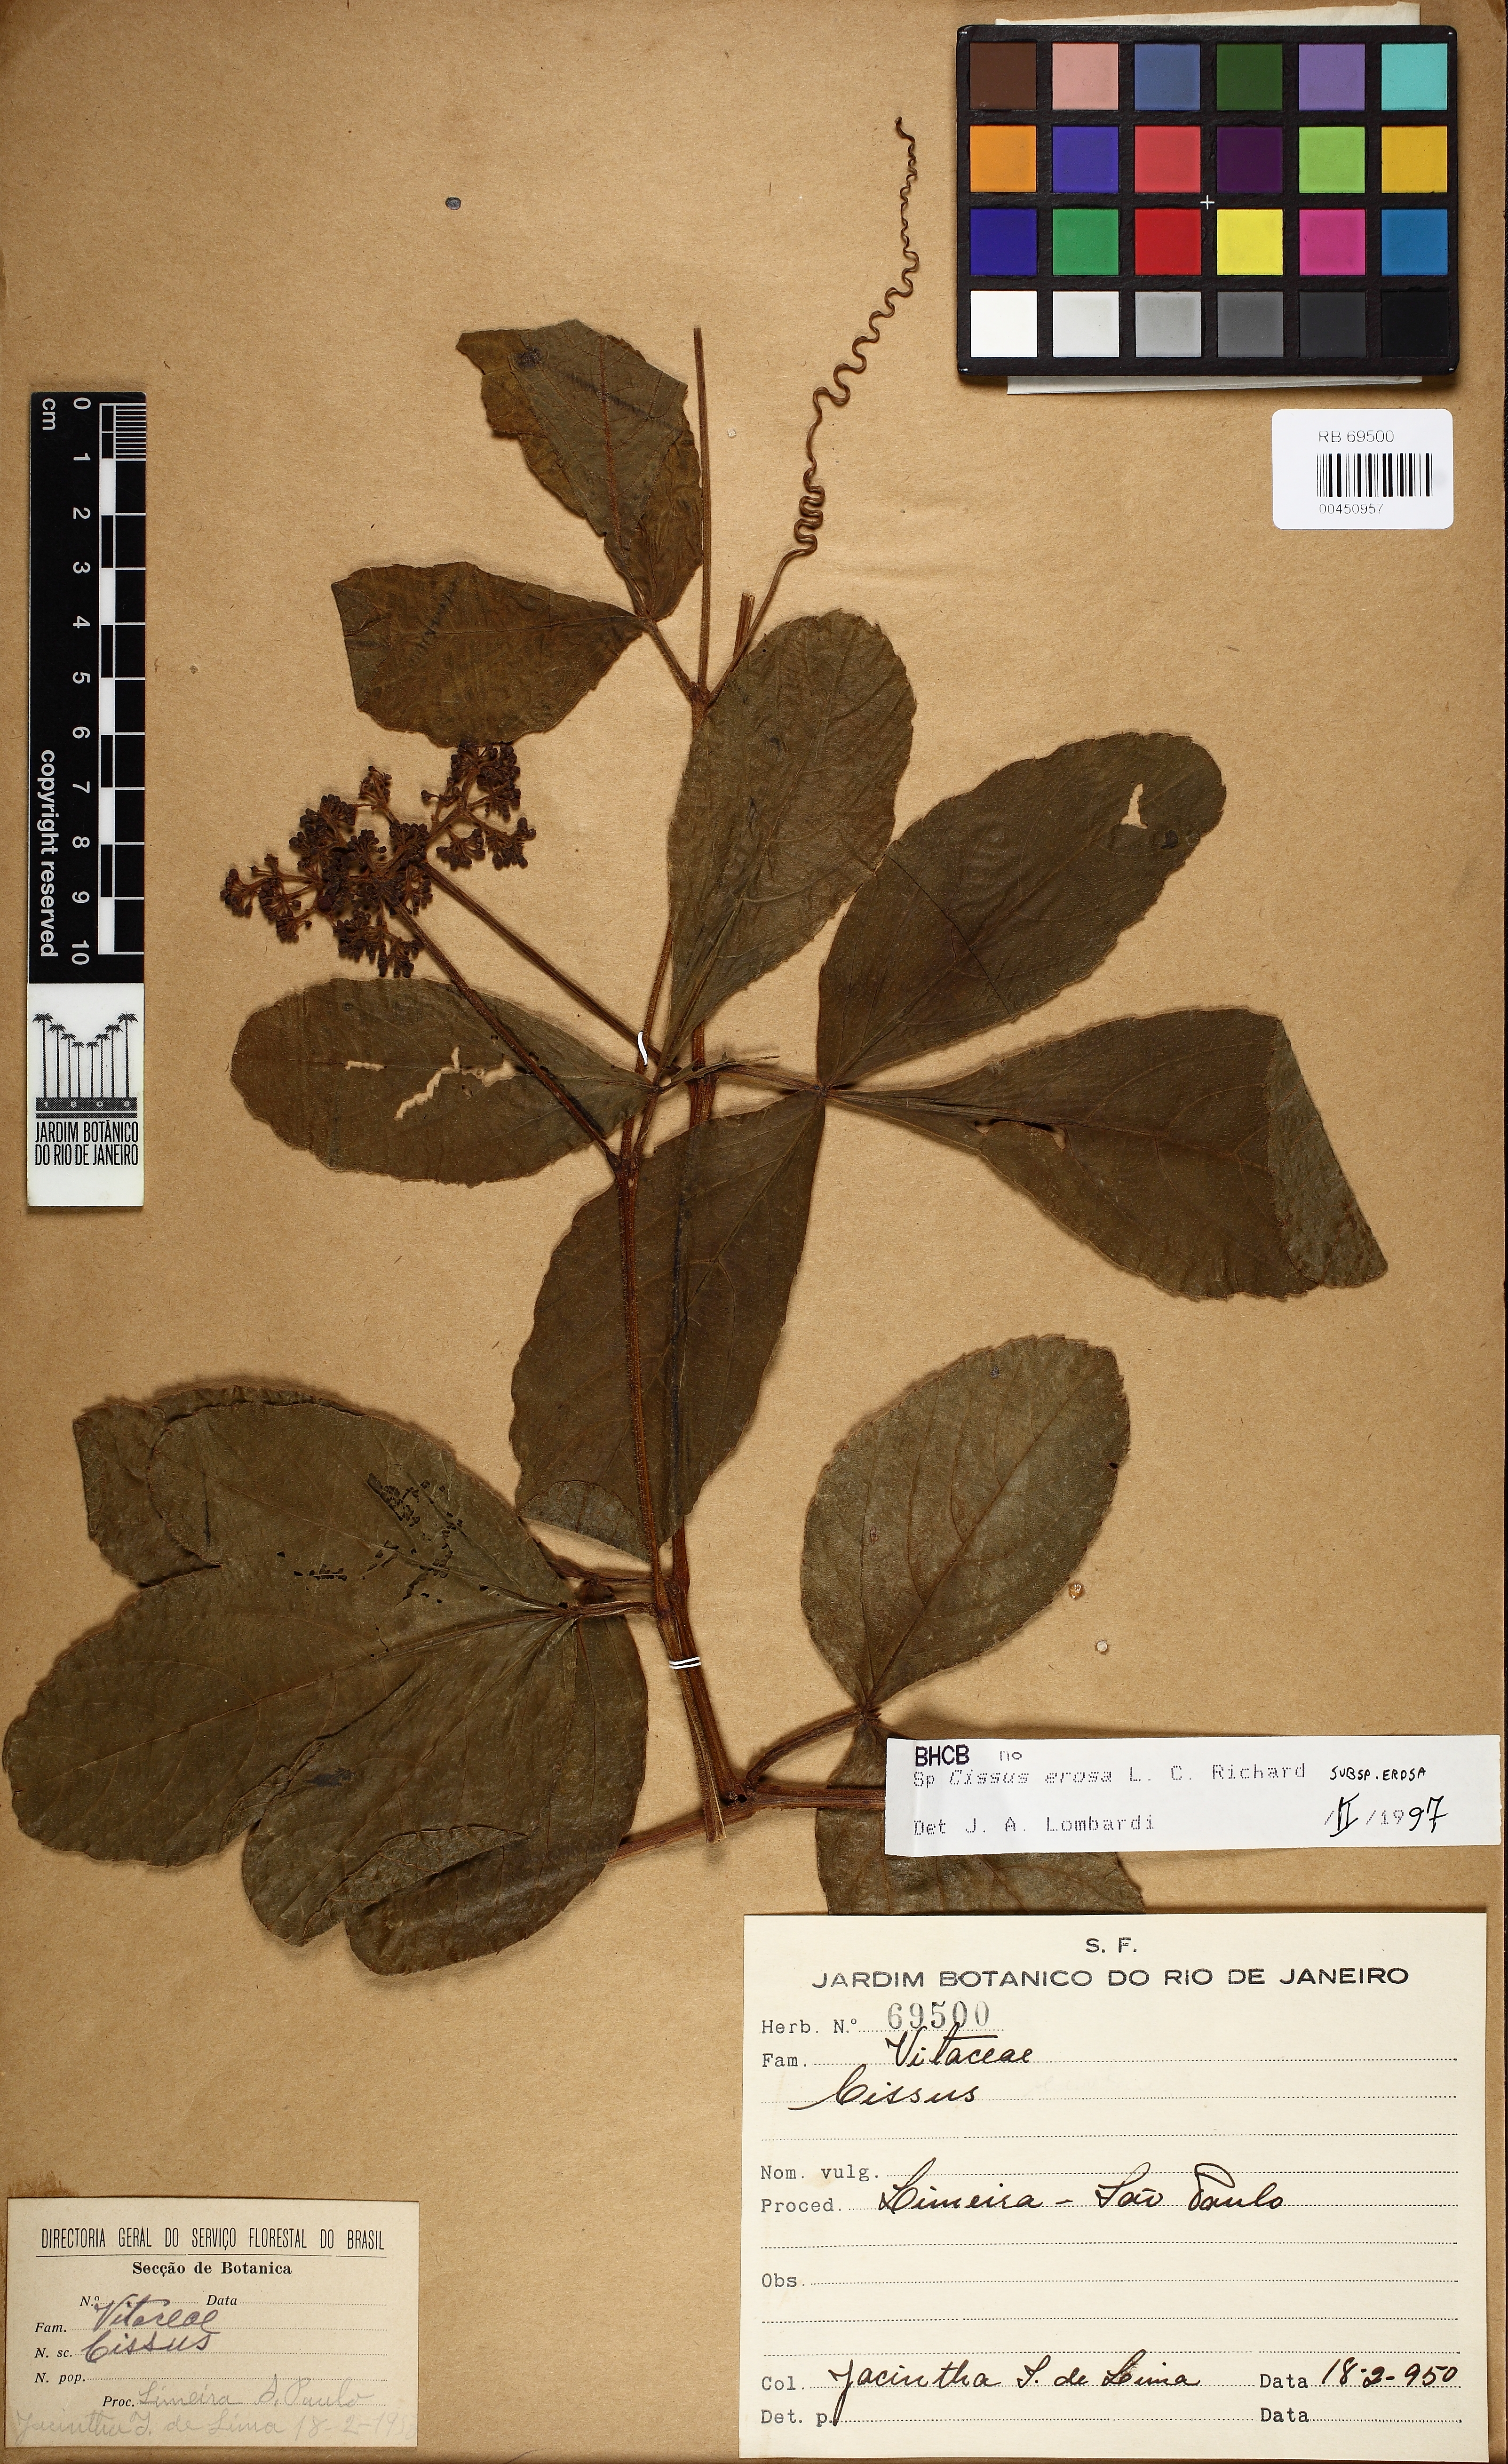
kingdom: Plantae
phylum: Tracheophyta
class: Magnoliopsida
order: Vitales
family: Vitaceae
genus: Cissus
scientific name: Cissus erosa
